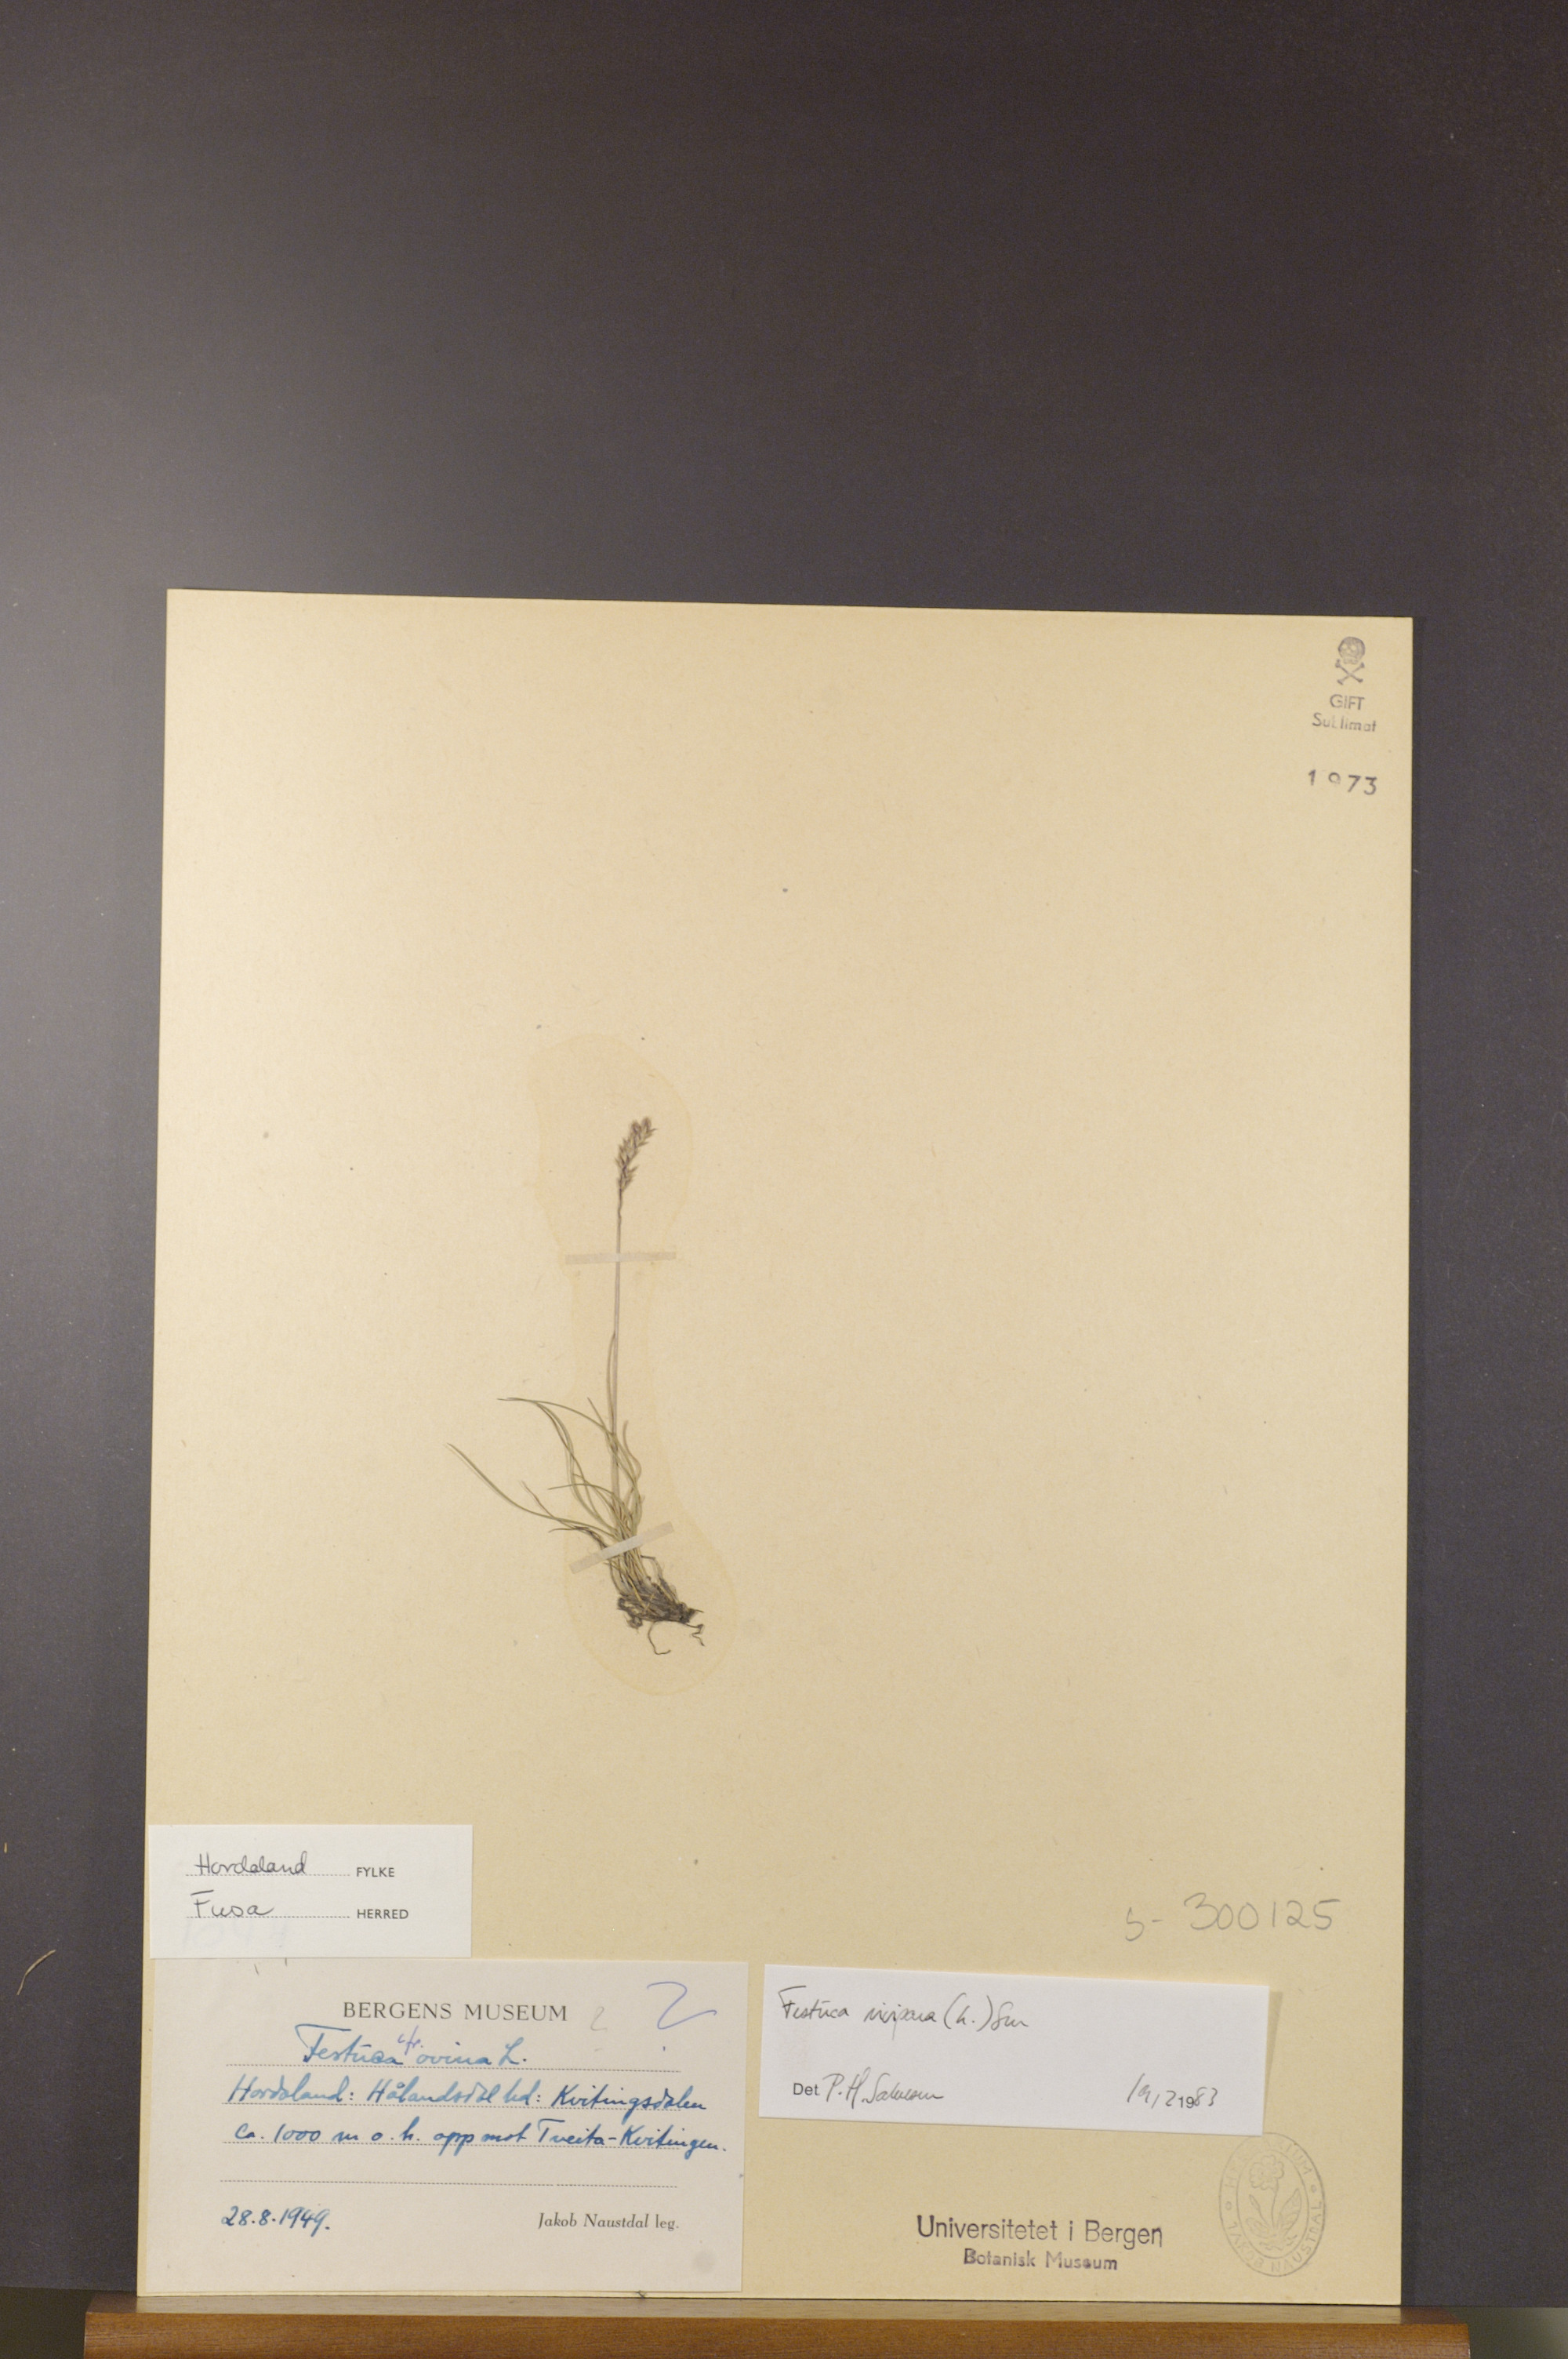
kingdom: Plantae
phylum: Tracheophyta
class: Liliopsida
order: Poales
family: Poaceae
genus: Festuca
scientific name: Festuca vivipara
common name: Viviparous sheep's-fescue
